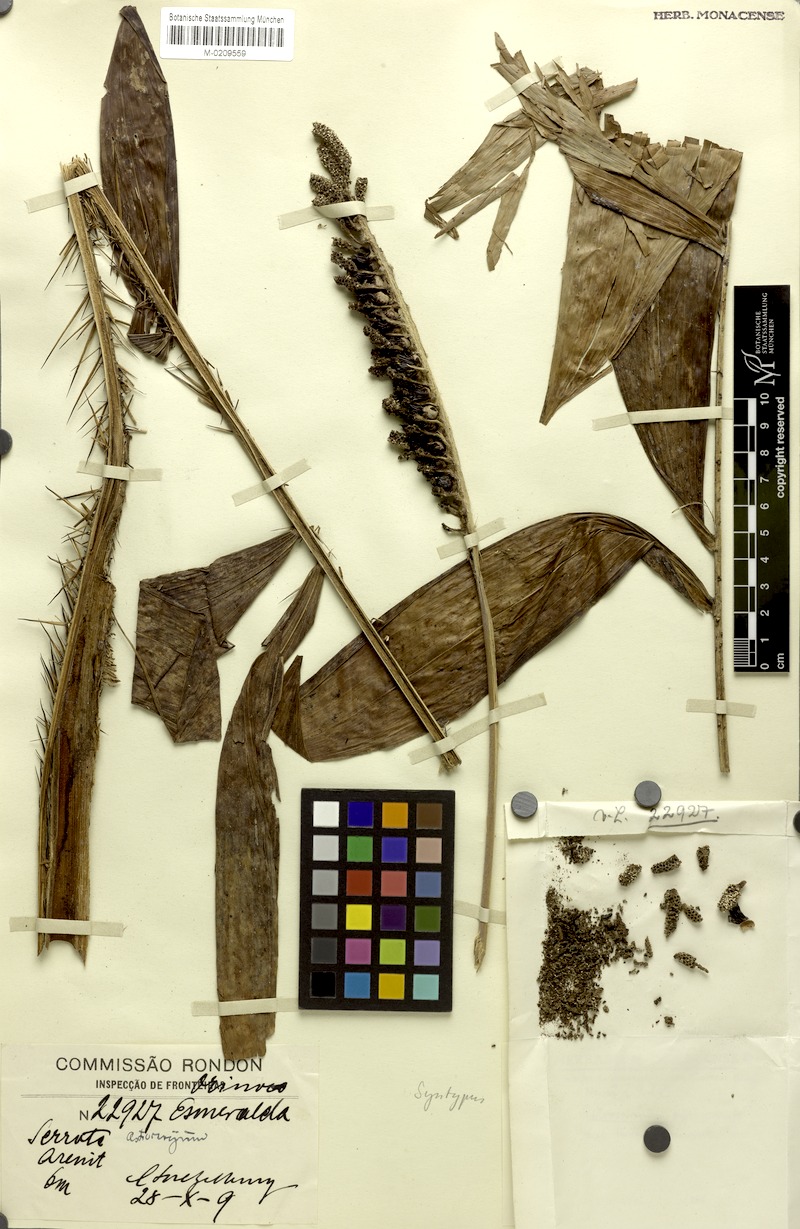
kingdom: Plantae
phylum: Tracheophyta
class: Liliopsida
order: Arecales
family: Arecaceae
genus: Astrocaryum
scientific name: Astrocaryum aculeatum
